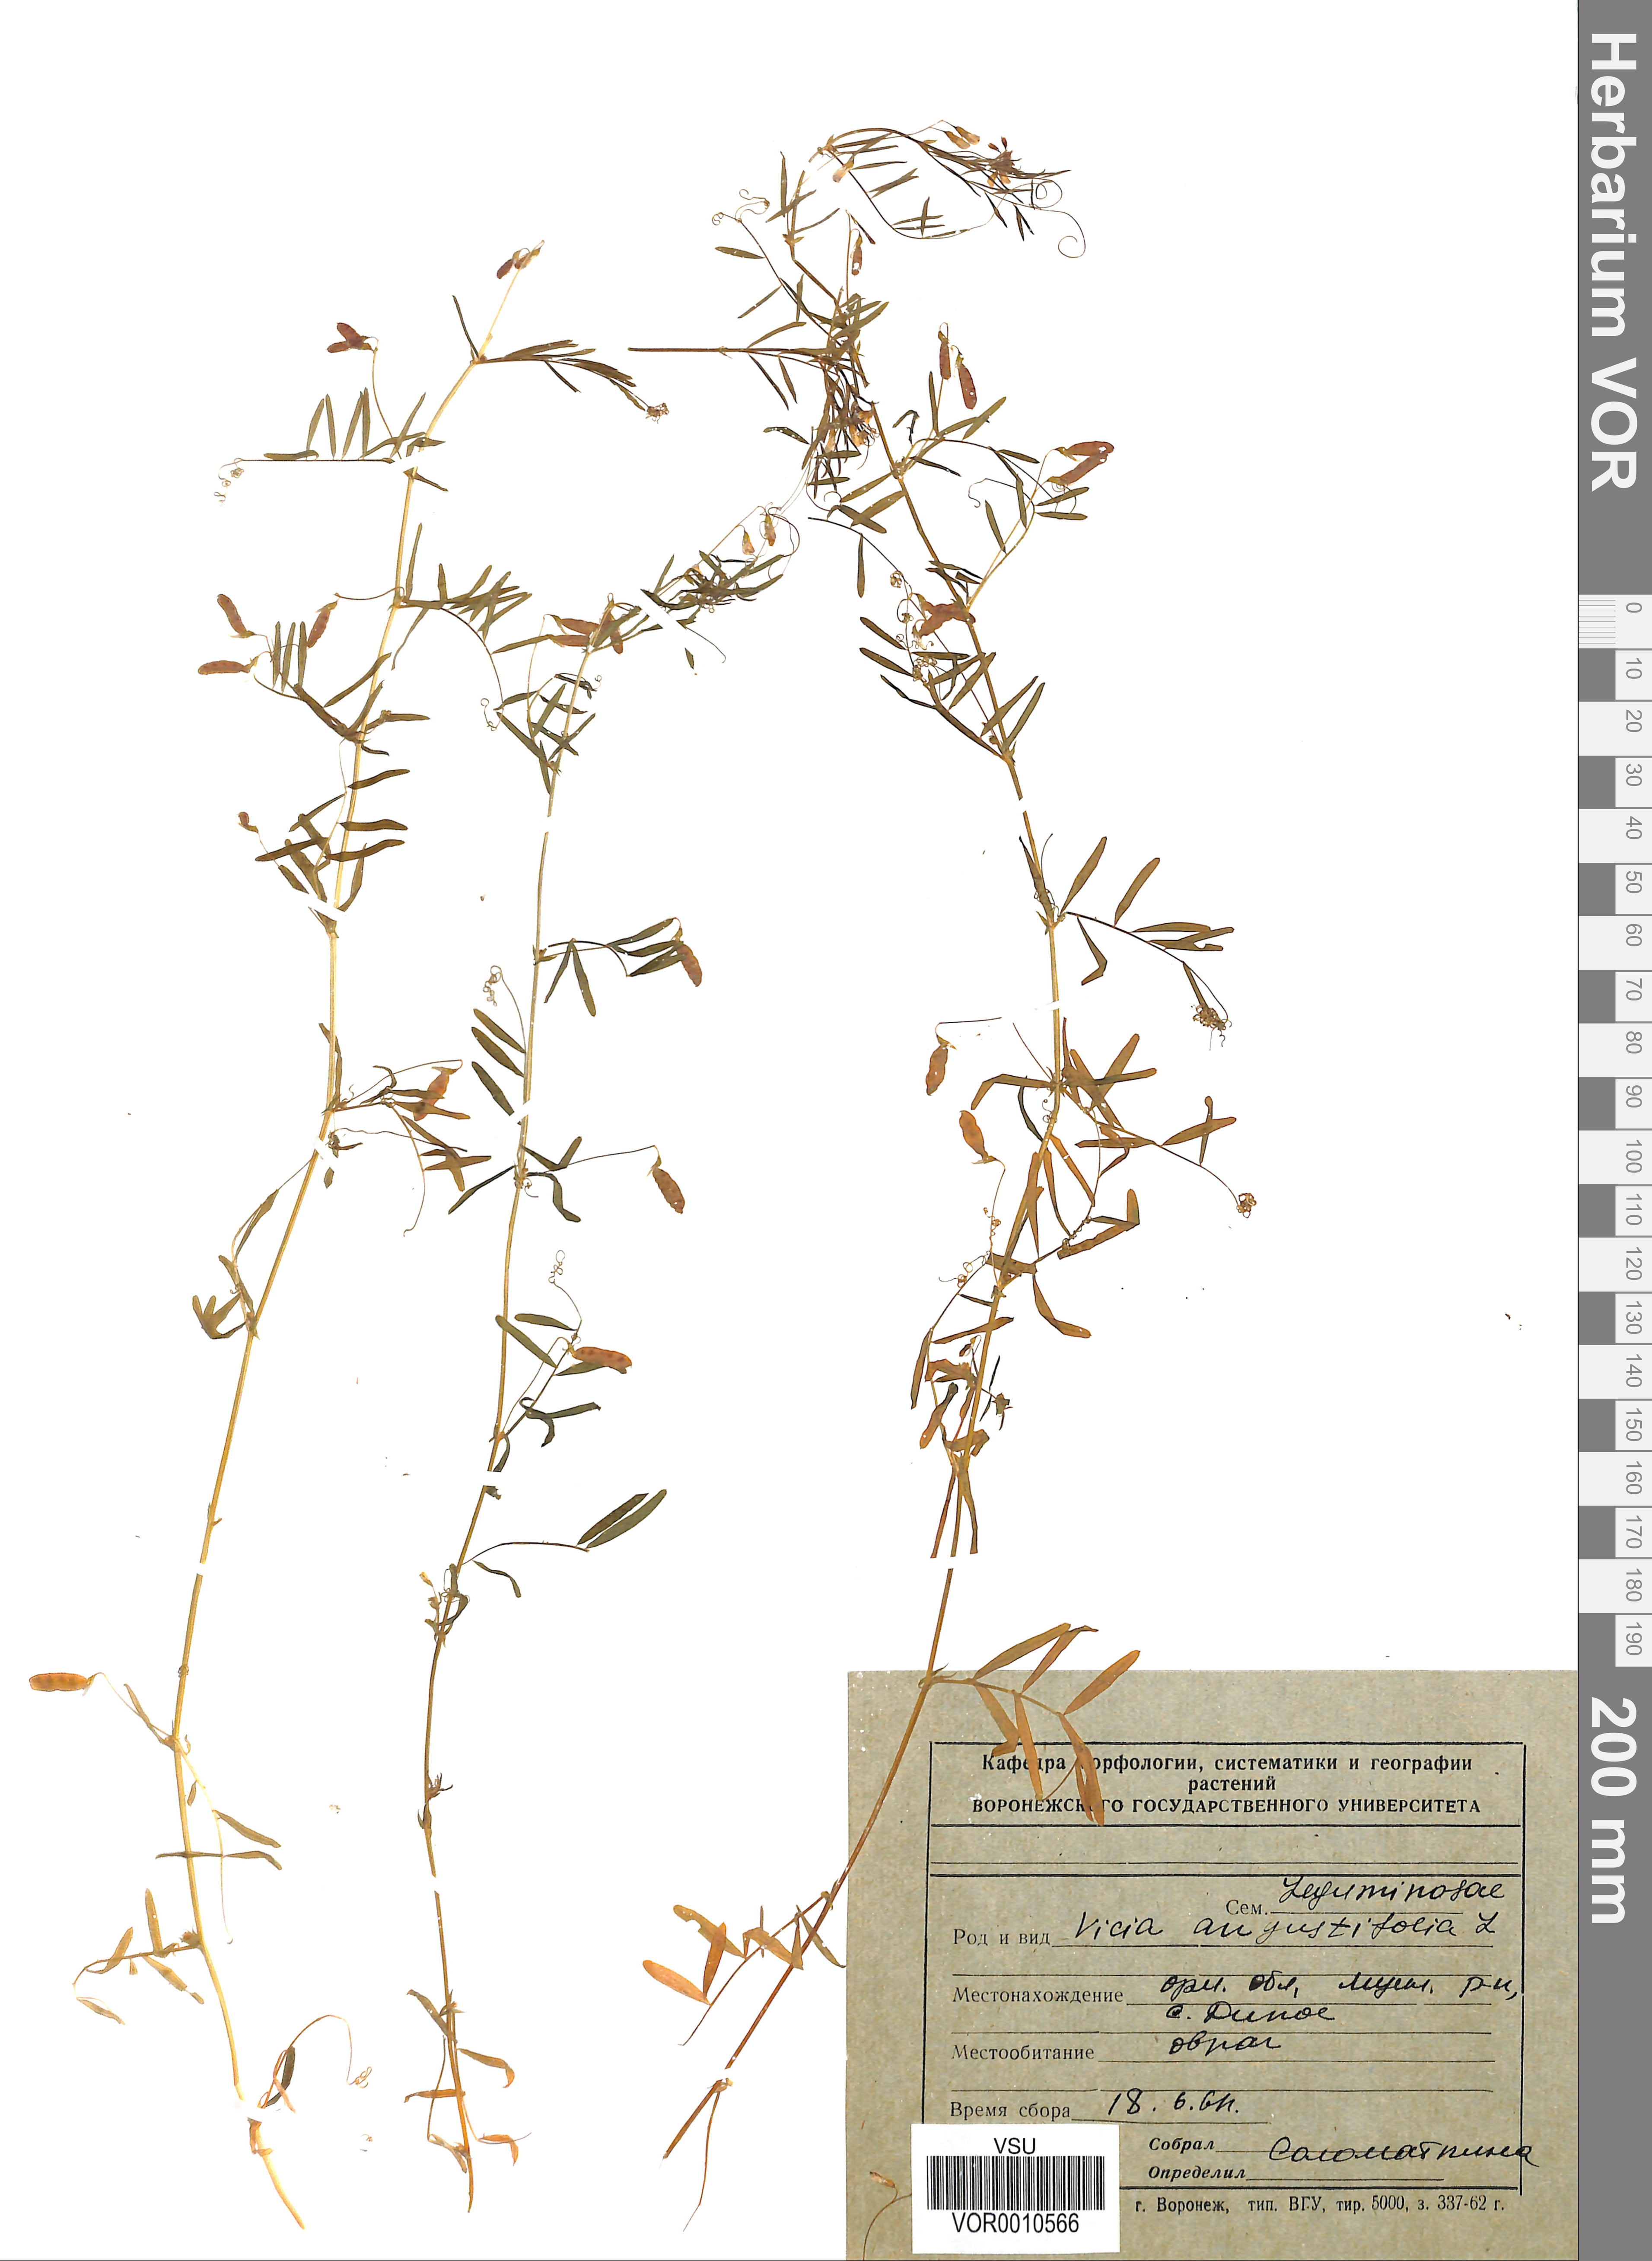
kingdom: Plantae
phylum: Tracheophyta
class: Magnoliopsida
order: Fabales
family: Fabaceae
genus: Vicia
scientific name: Vicia sativa
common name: Garden vetch
